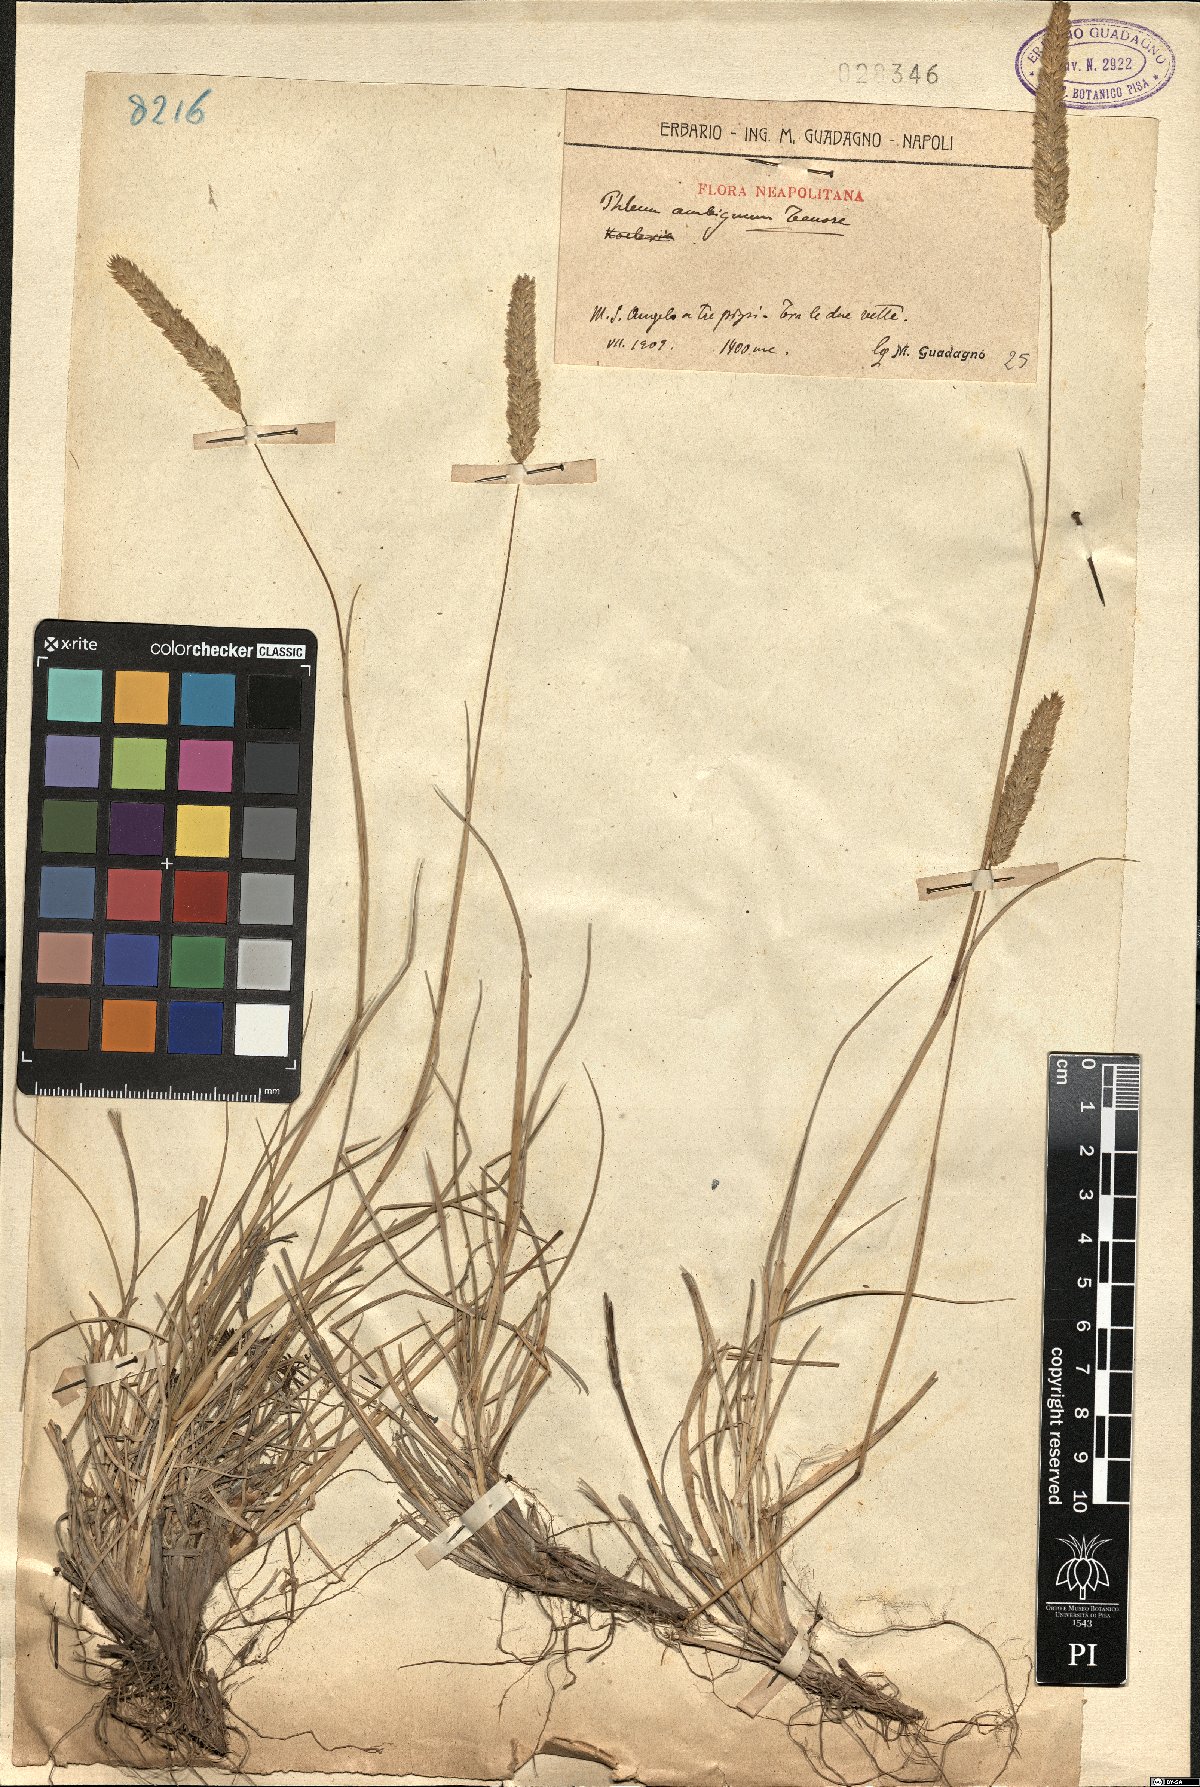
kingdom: Plantae
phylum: Tracheophyta
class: Liliopsida
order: Poales
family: Poaceae
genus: Phleum
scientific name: Phleum hirsutum
